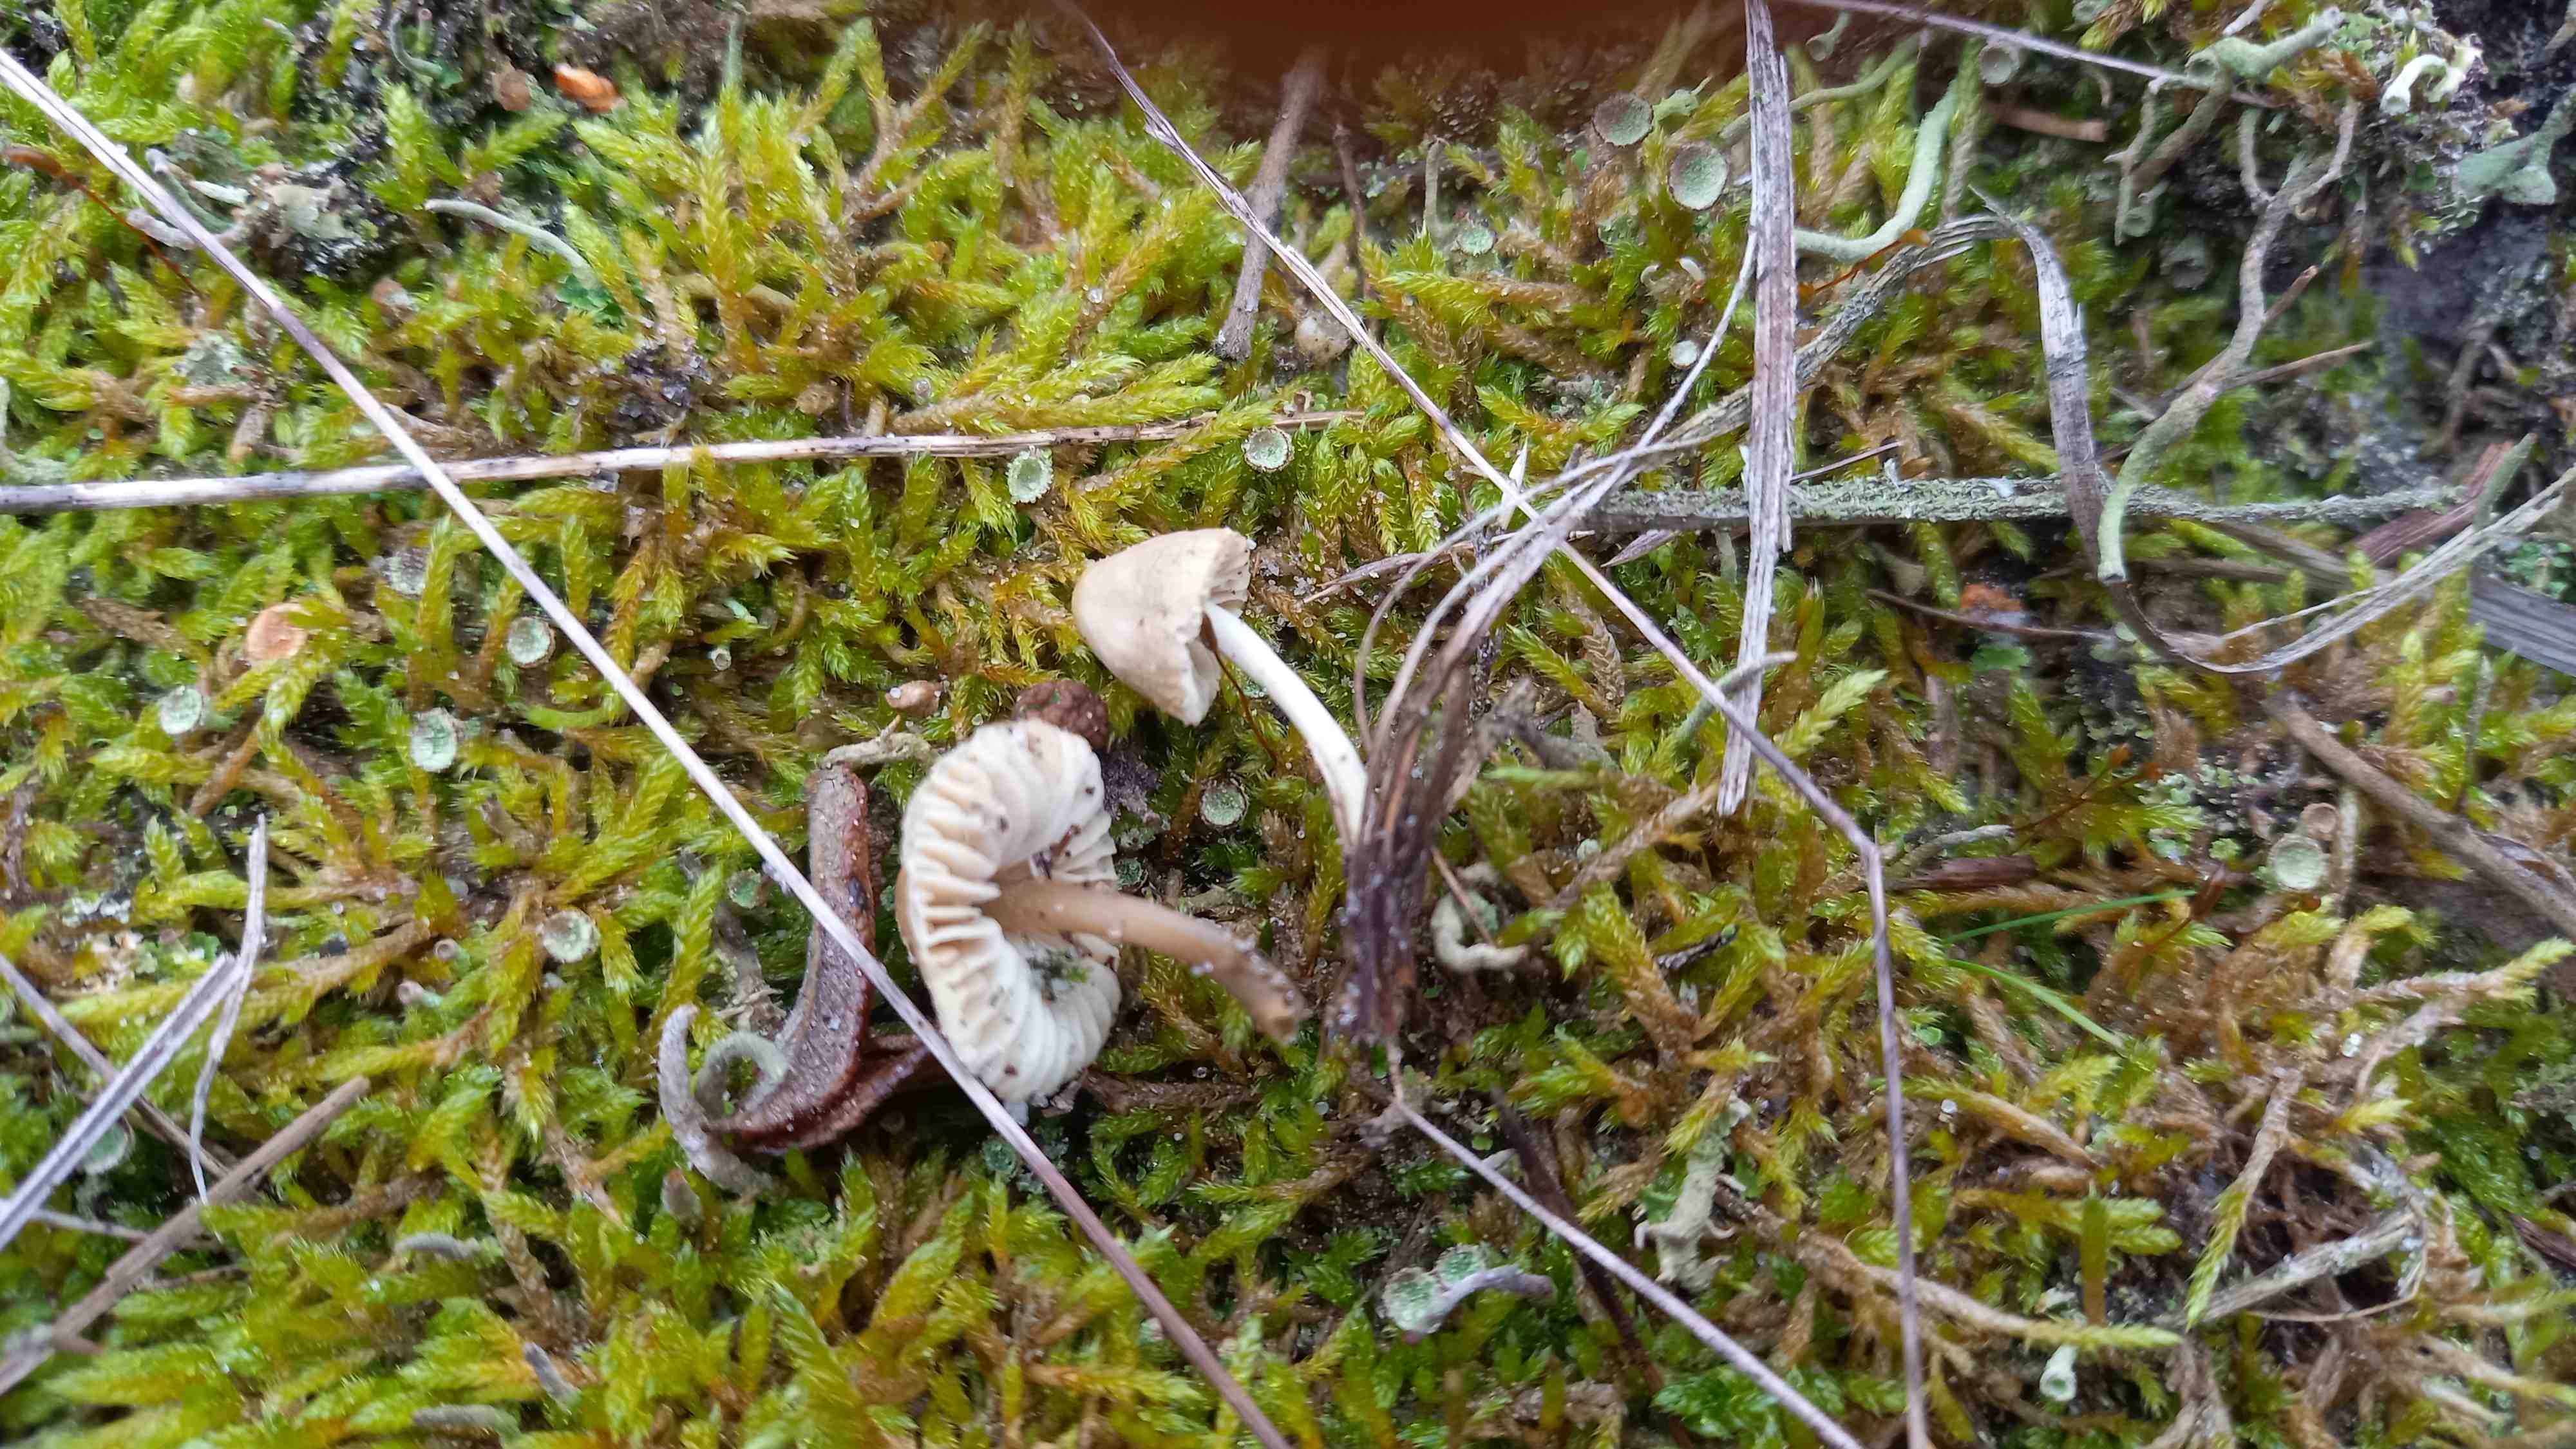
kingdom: Fungi
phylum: Basidiomycota
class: Agaricomycetes
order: Agaricales
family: Mycenaceae
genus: Mycena
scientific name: Mycena chlorantha
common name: klit-huesvamp
